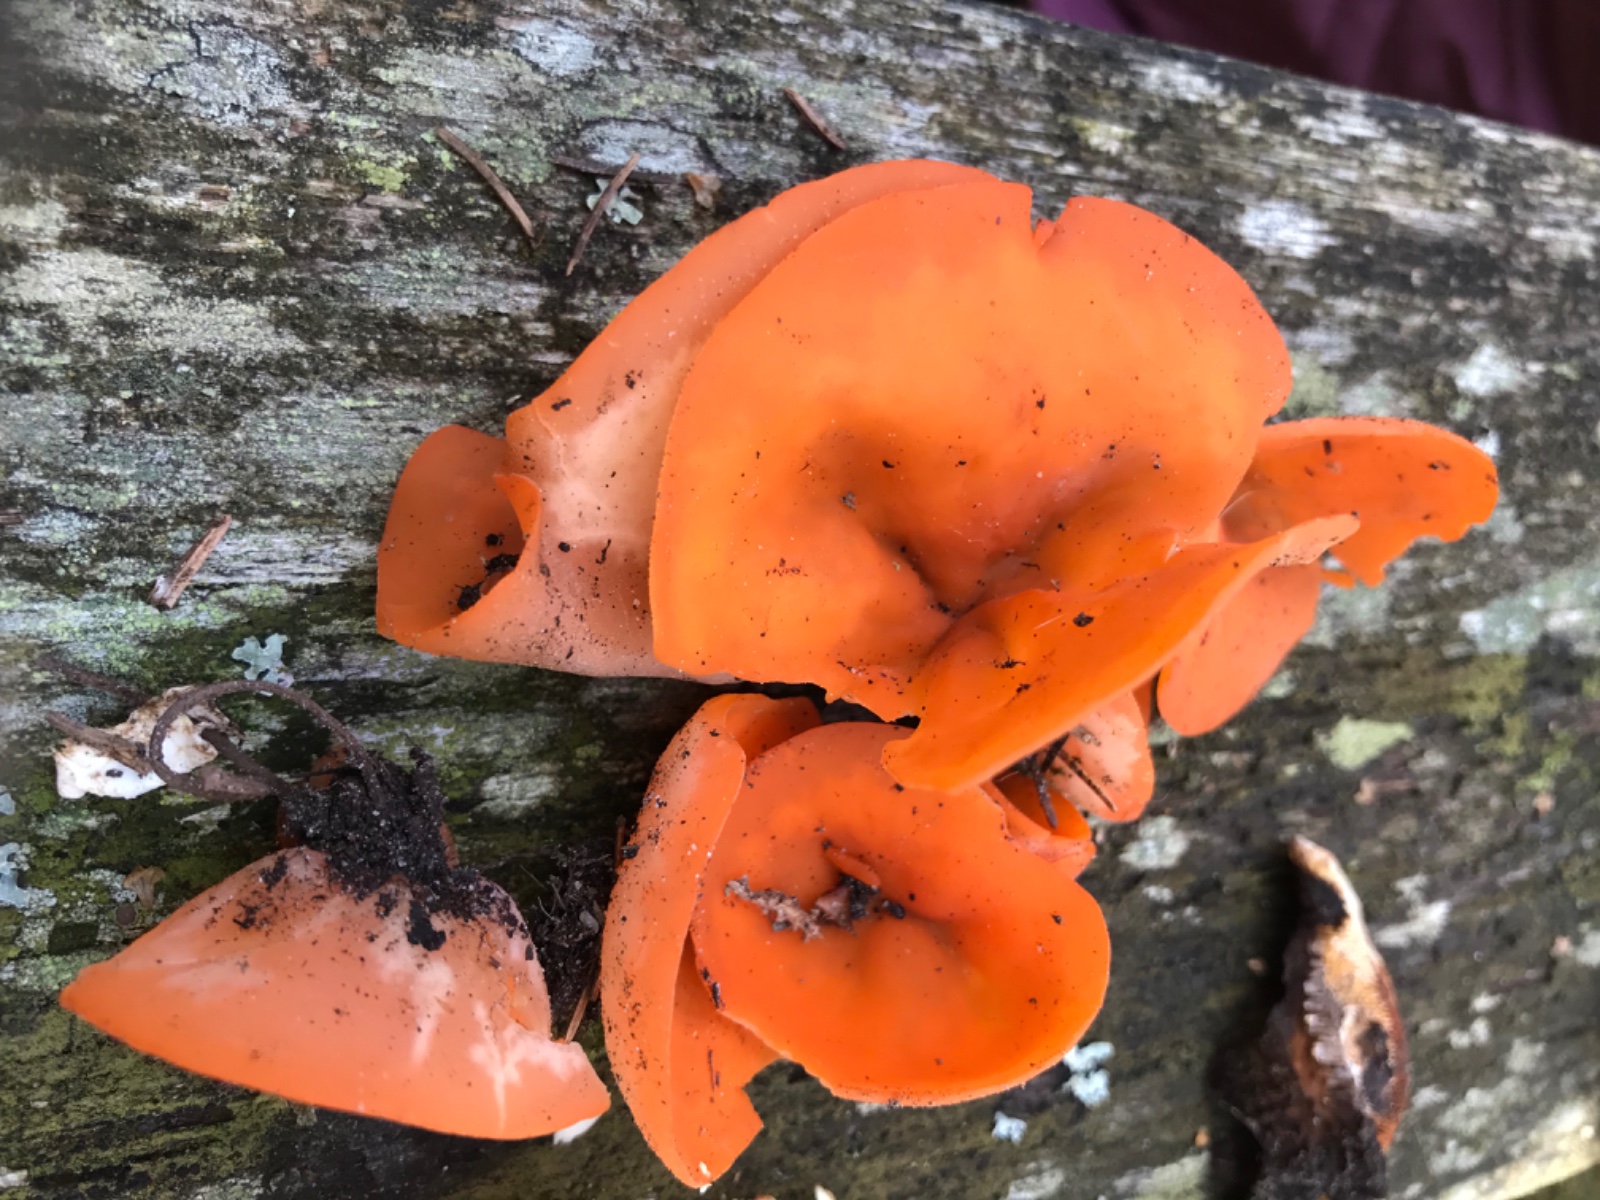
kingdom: Fungi
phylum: Ascomycota
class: Pezizomycetes
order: Pezizales
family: Pyronemataceae
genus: Aleuria
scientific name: Aleuria aurantia
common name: almindelig orangebæger
